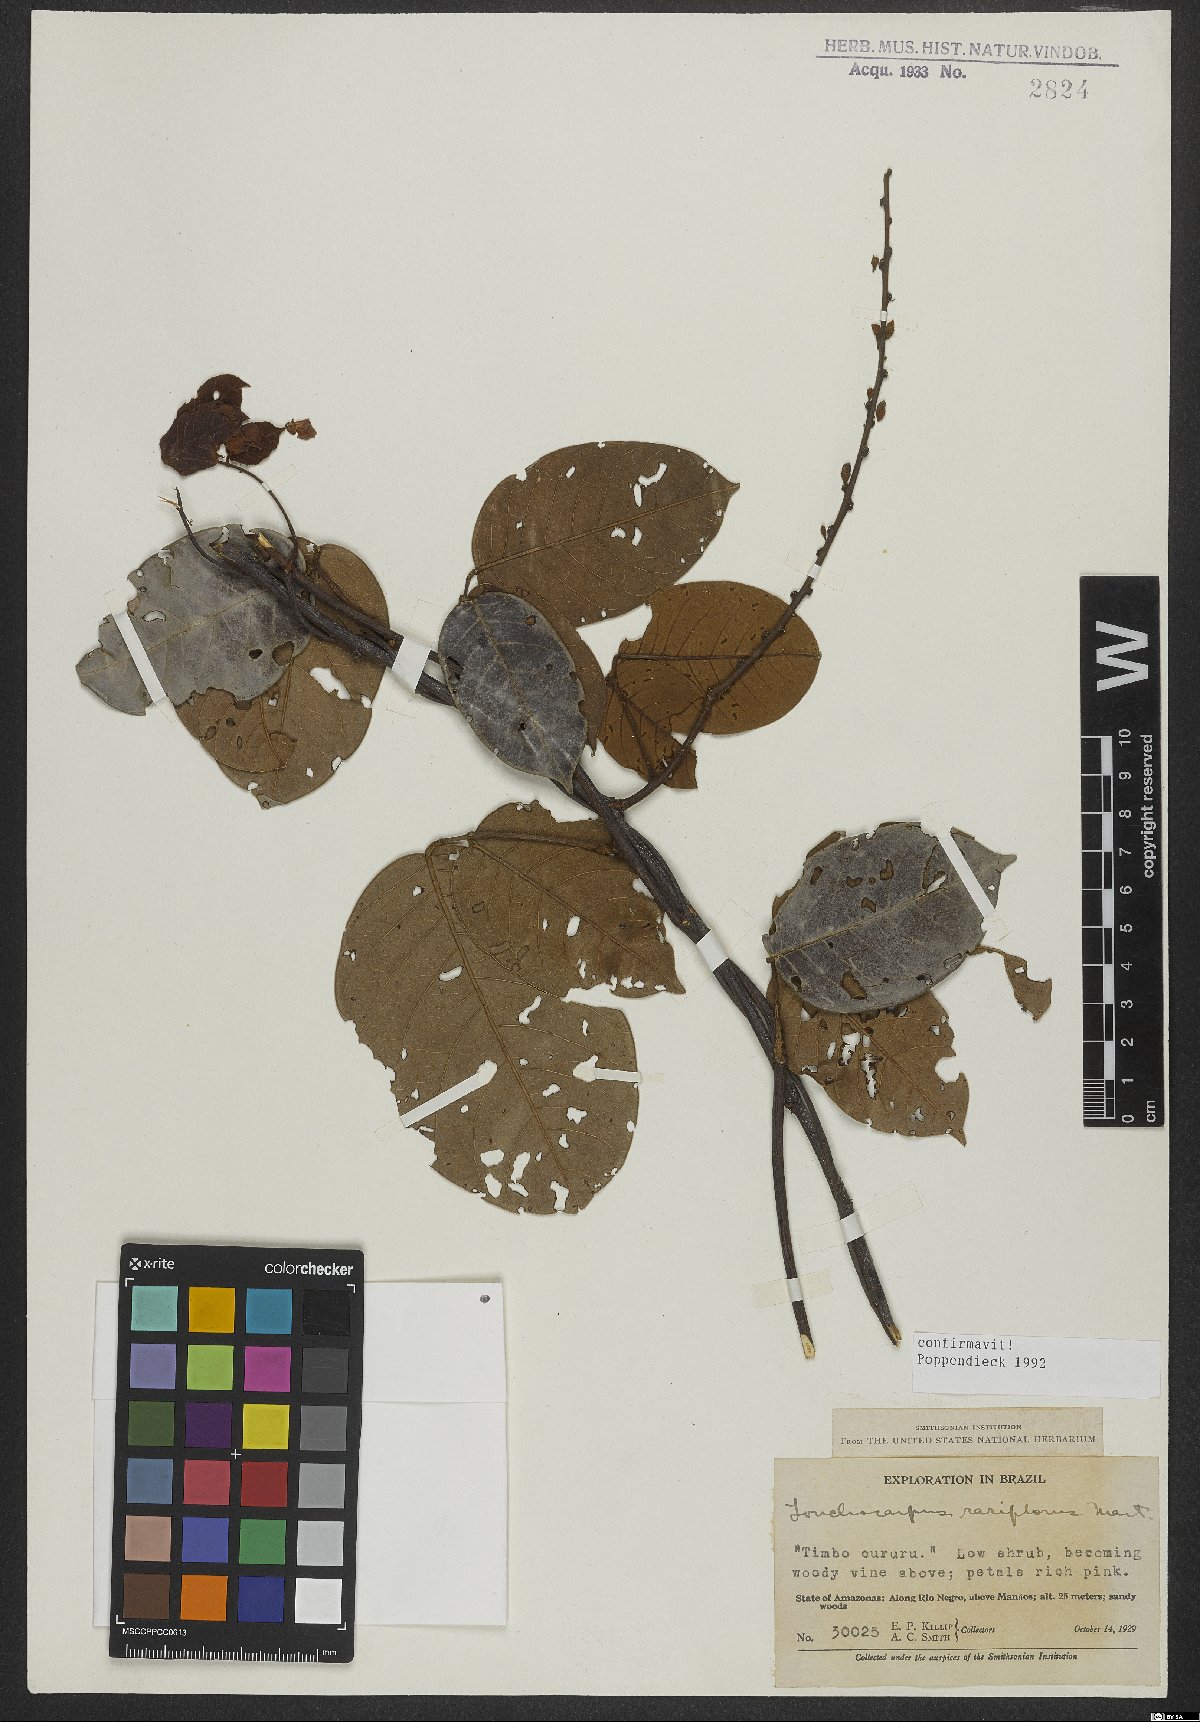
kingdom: Plantae
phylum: Tracheophyta
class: Magnoliopsida
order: Fabales
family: Fabaceae
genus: Deguelia
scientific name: Deguelia rariflora
